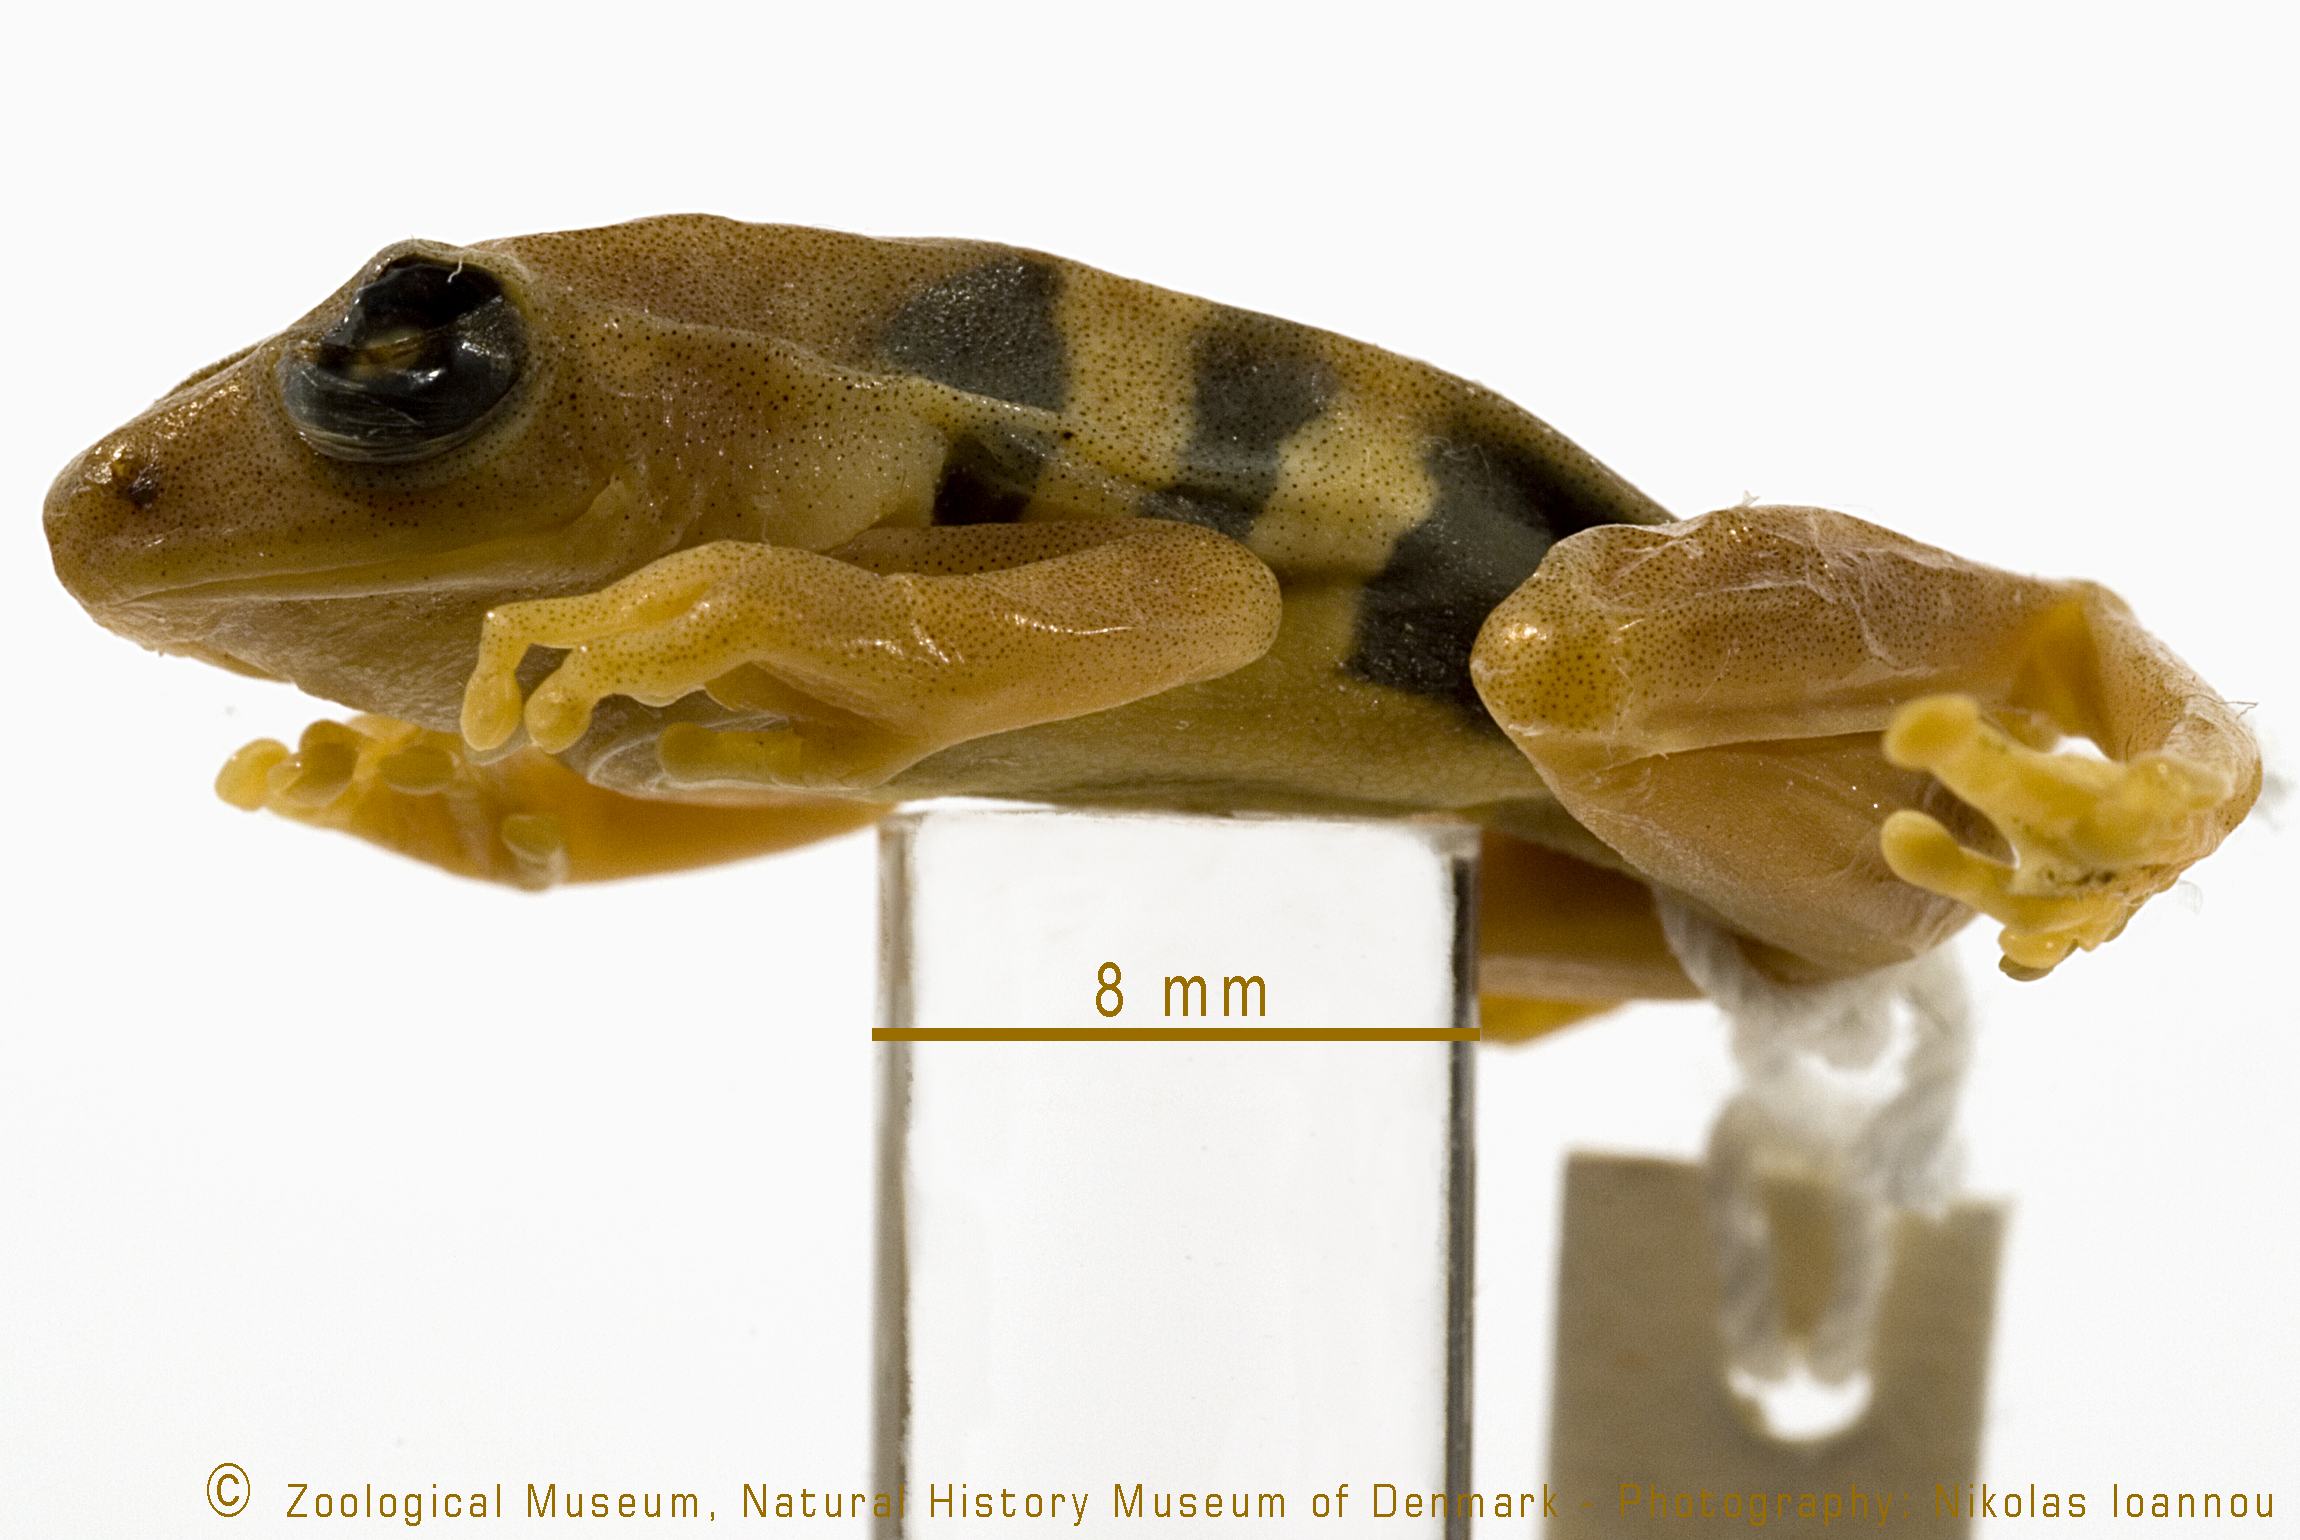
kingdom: Animalia
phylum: Chordata
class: Amphibia
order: Anura
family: Hyperoliidae
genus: Hyperolius
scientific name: Hyperolius marginatus
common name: Silver-striped sedgefrog
